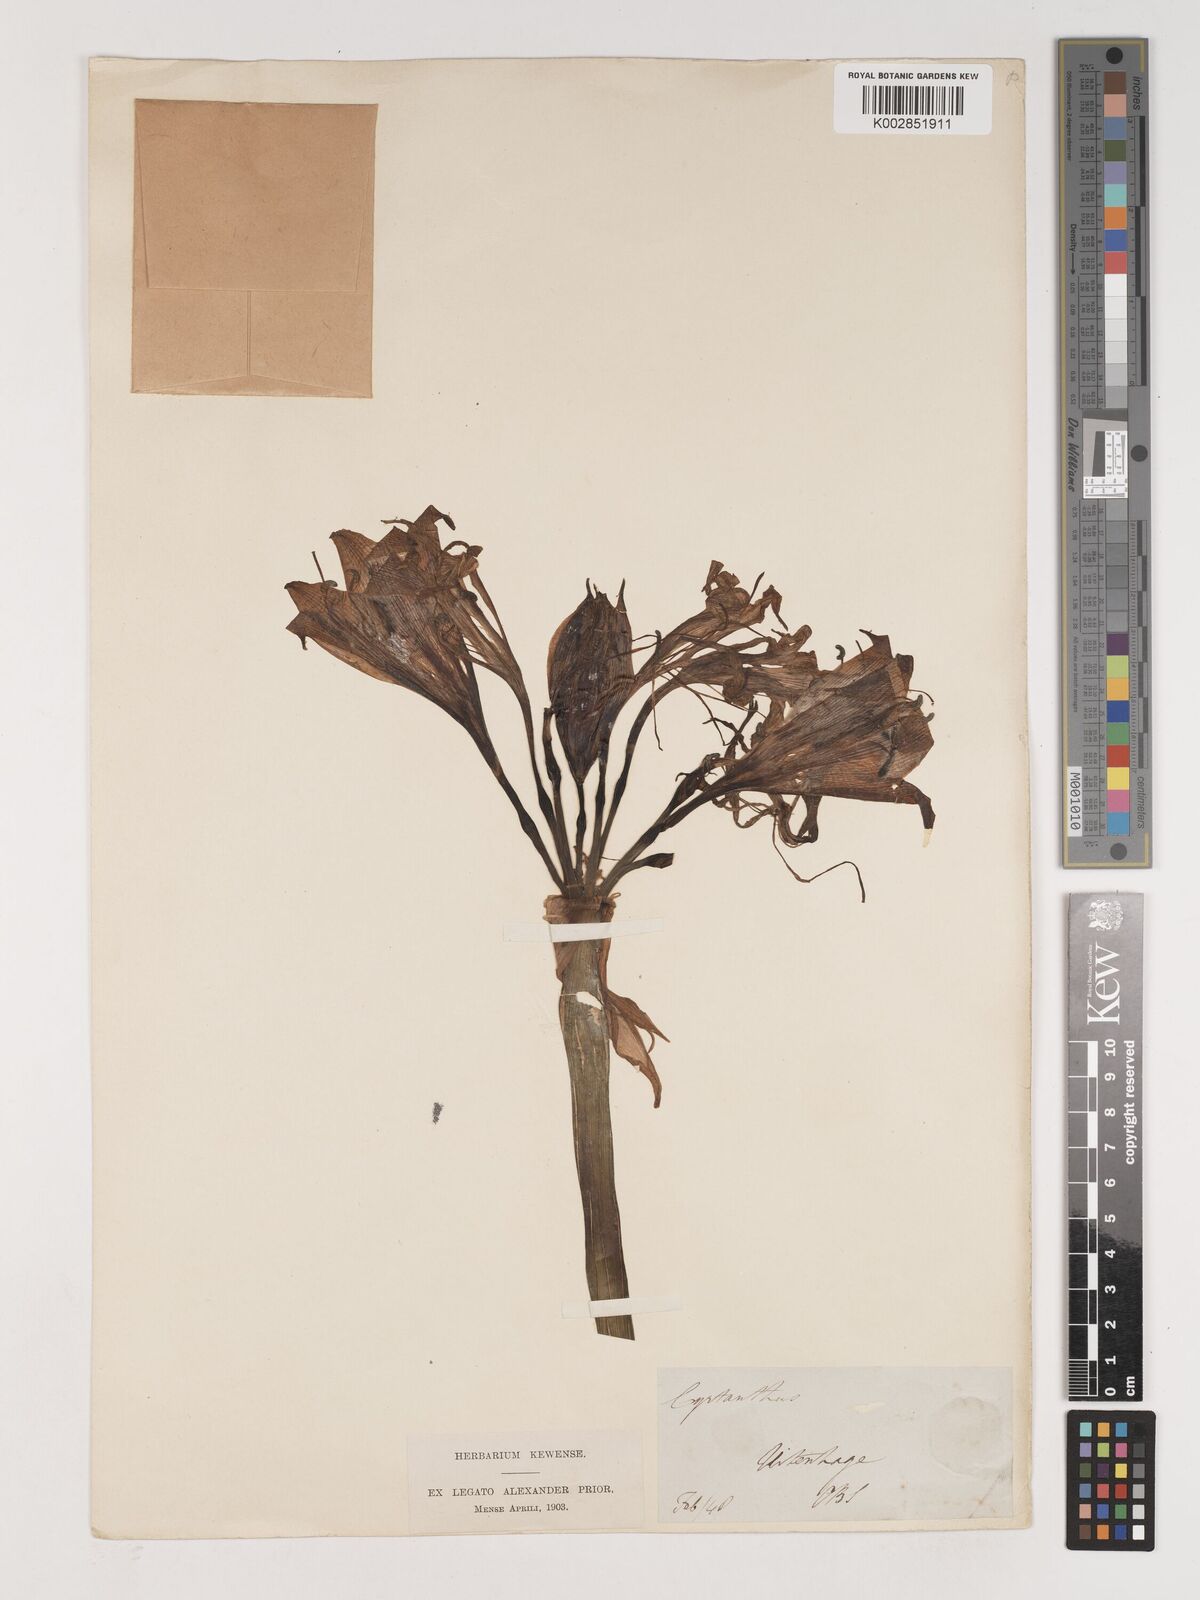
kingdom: Plantae
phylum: Tracheophyta
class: Liliopsida
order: Asparagales
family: Amaryllidaceae
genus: Crinum
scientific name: Crinum
